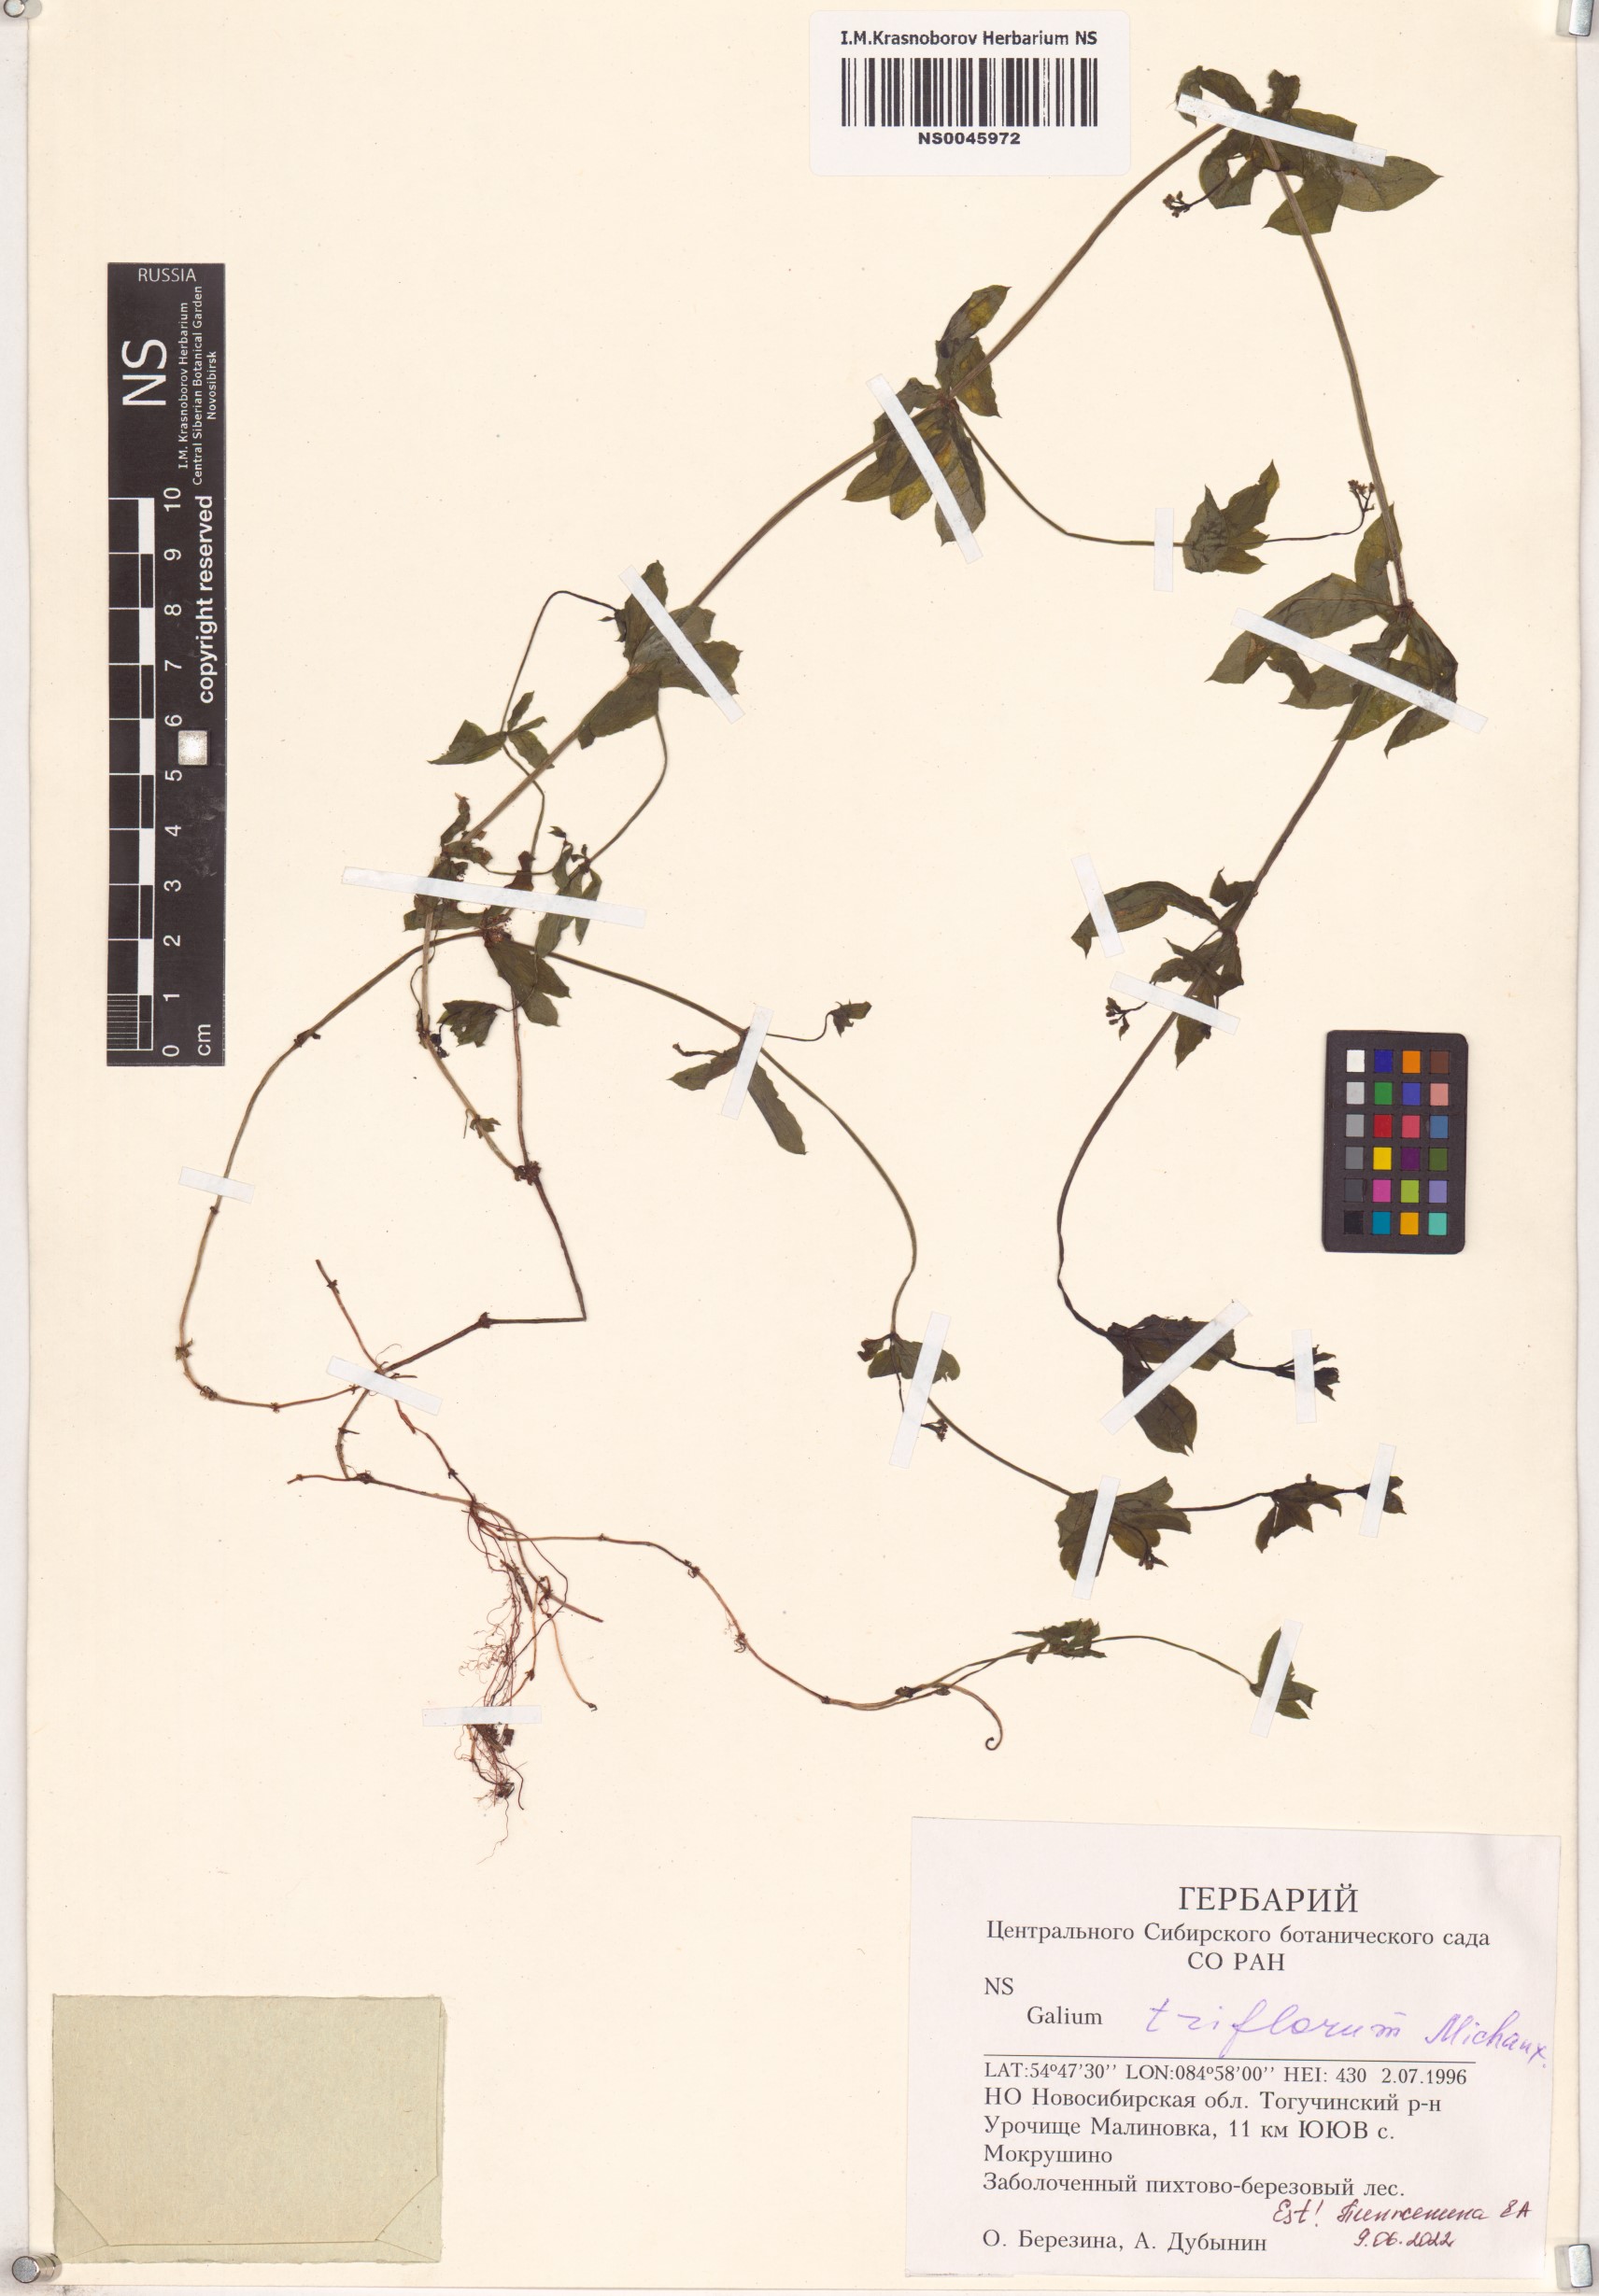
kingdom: Plantae
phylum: Tracheophyta
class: Magnoliopsida
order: Gentianales
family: Rubiaceae
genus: Galium
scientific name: Galium triflorum
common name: Fragrant bedstraw
